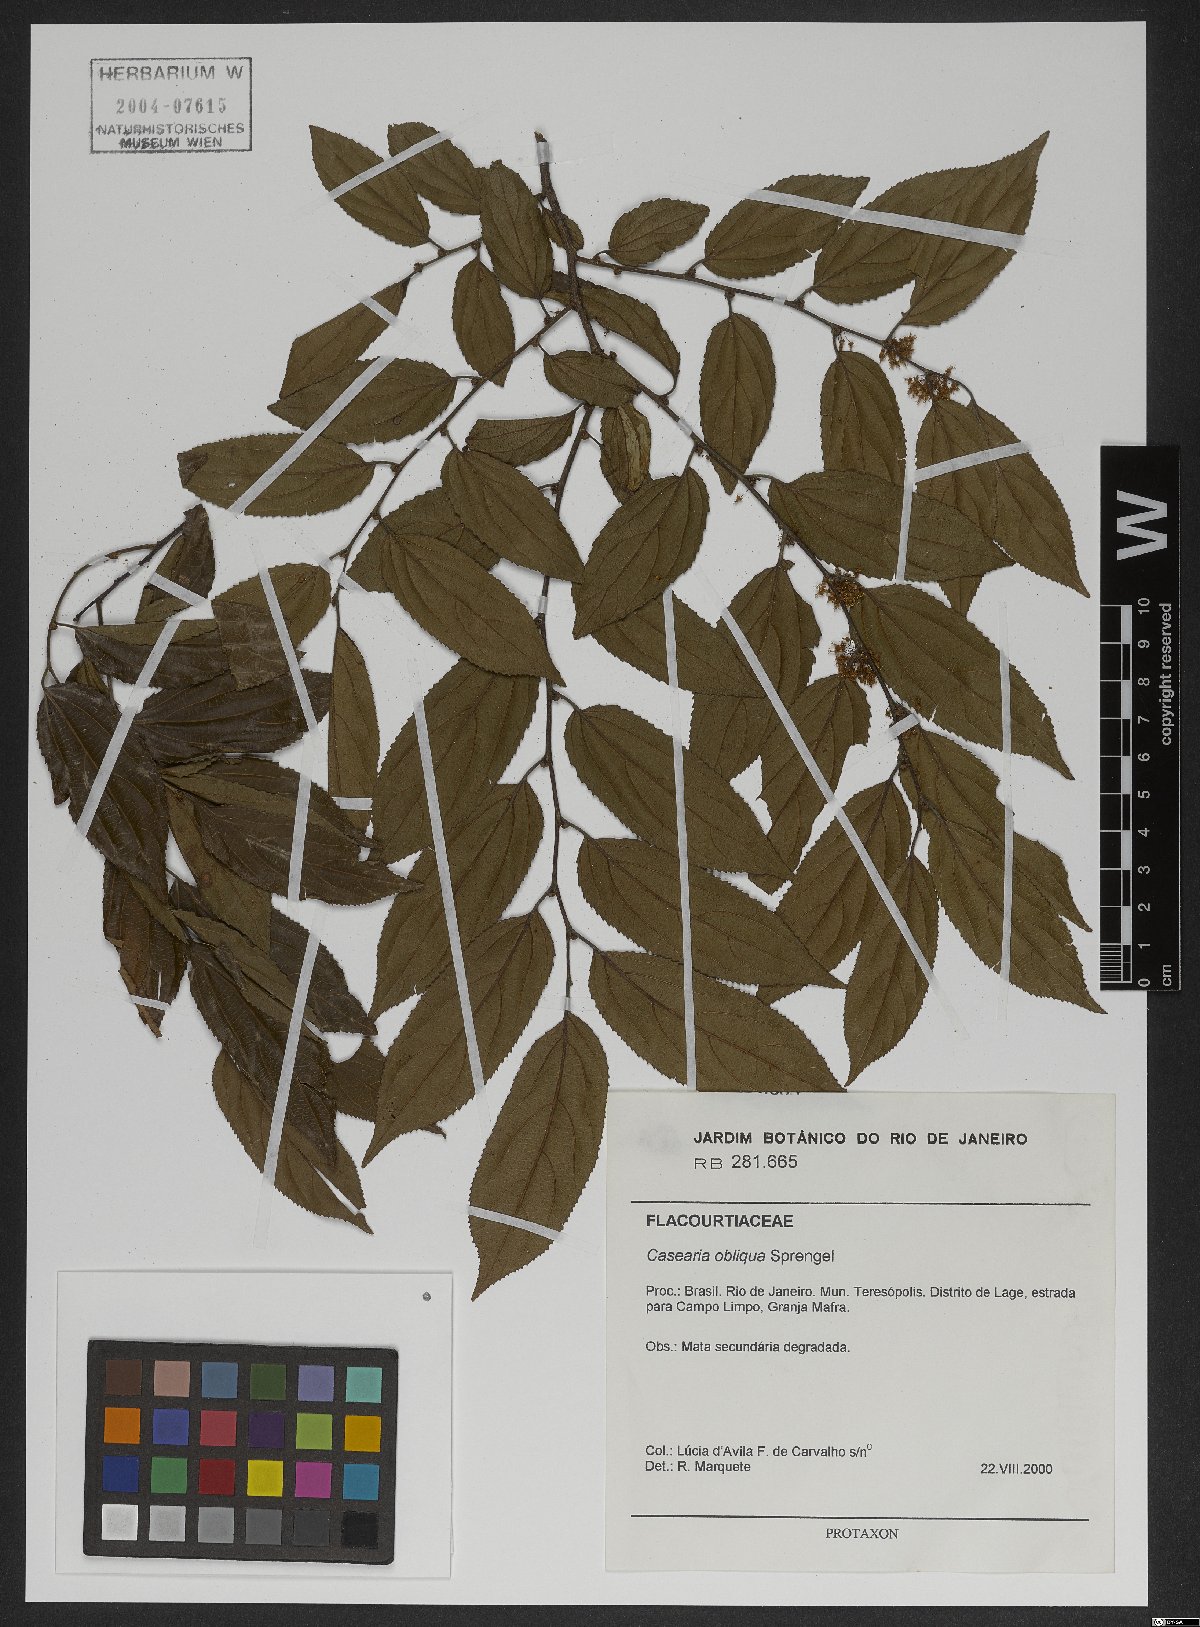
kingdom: Plantae
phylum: Tracheophyta
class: Magnoliopsida
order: Malpighiales
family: Salicaceae
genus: Casearia
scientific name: Casearia obliqua
